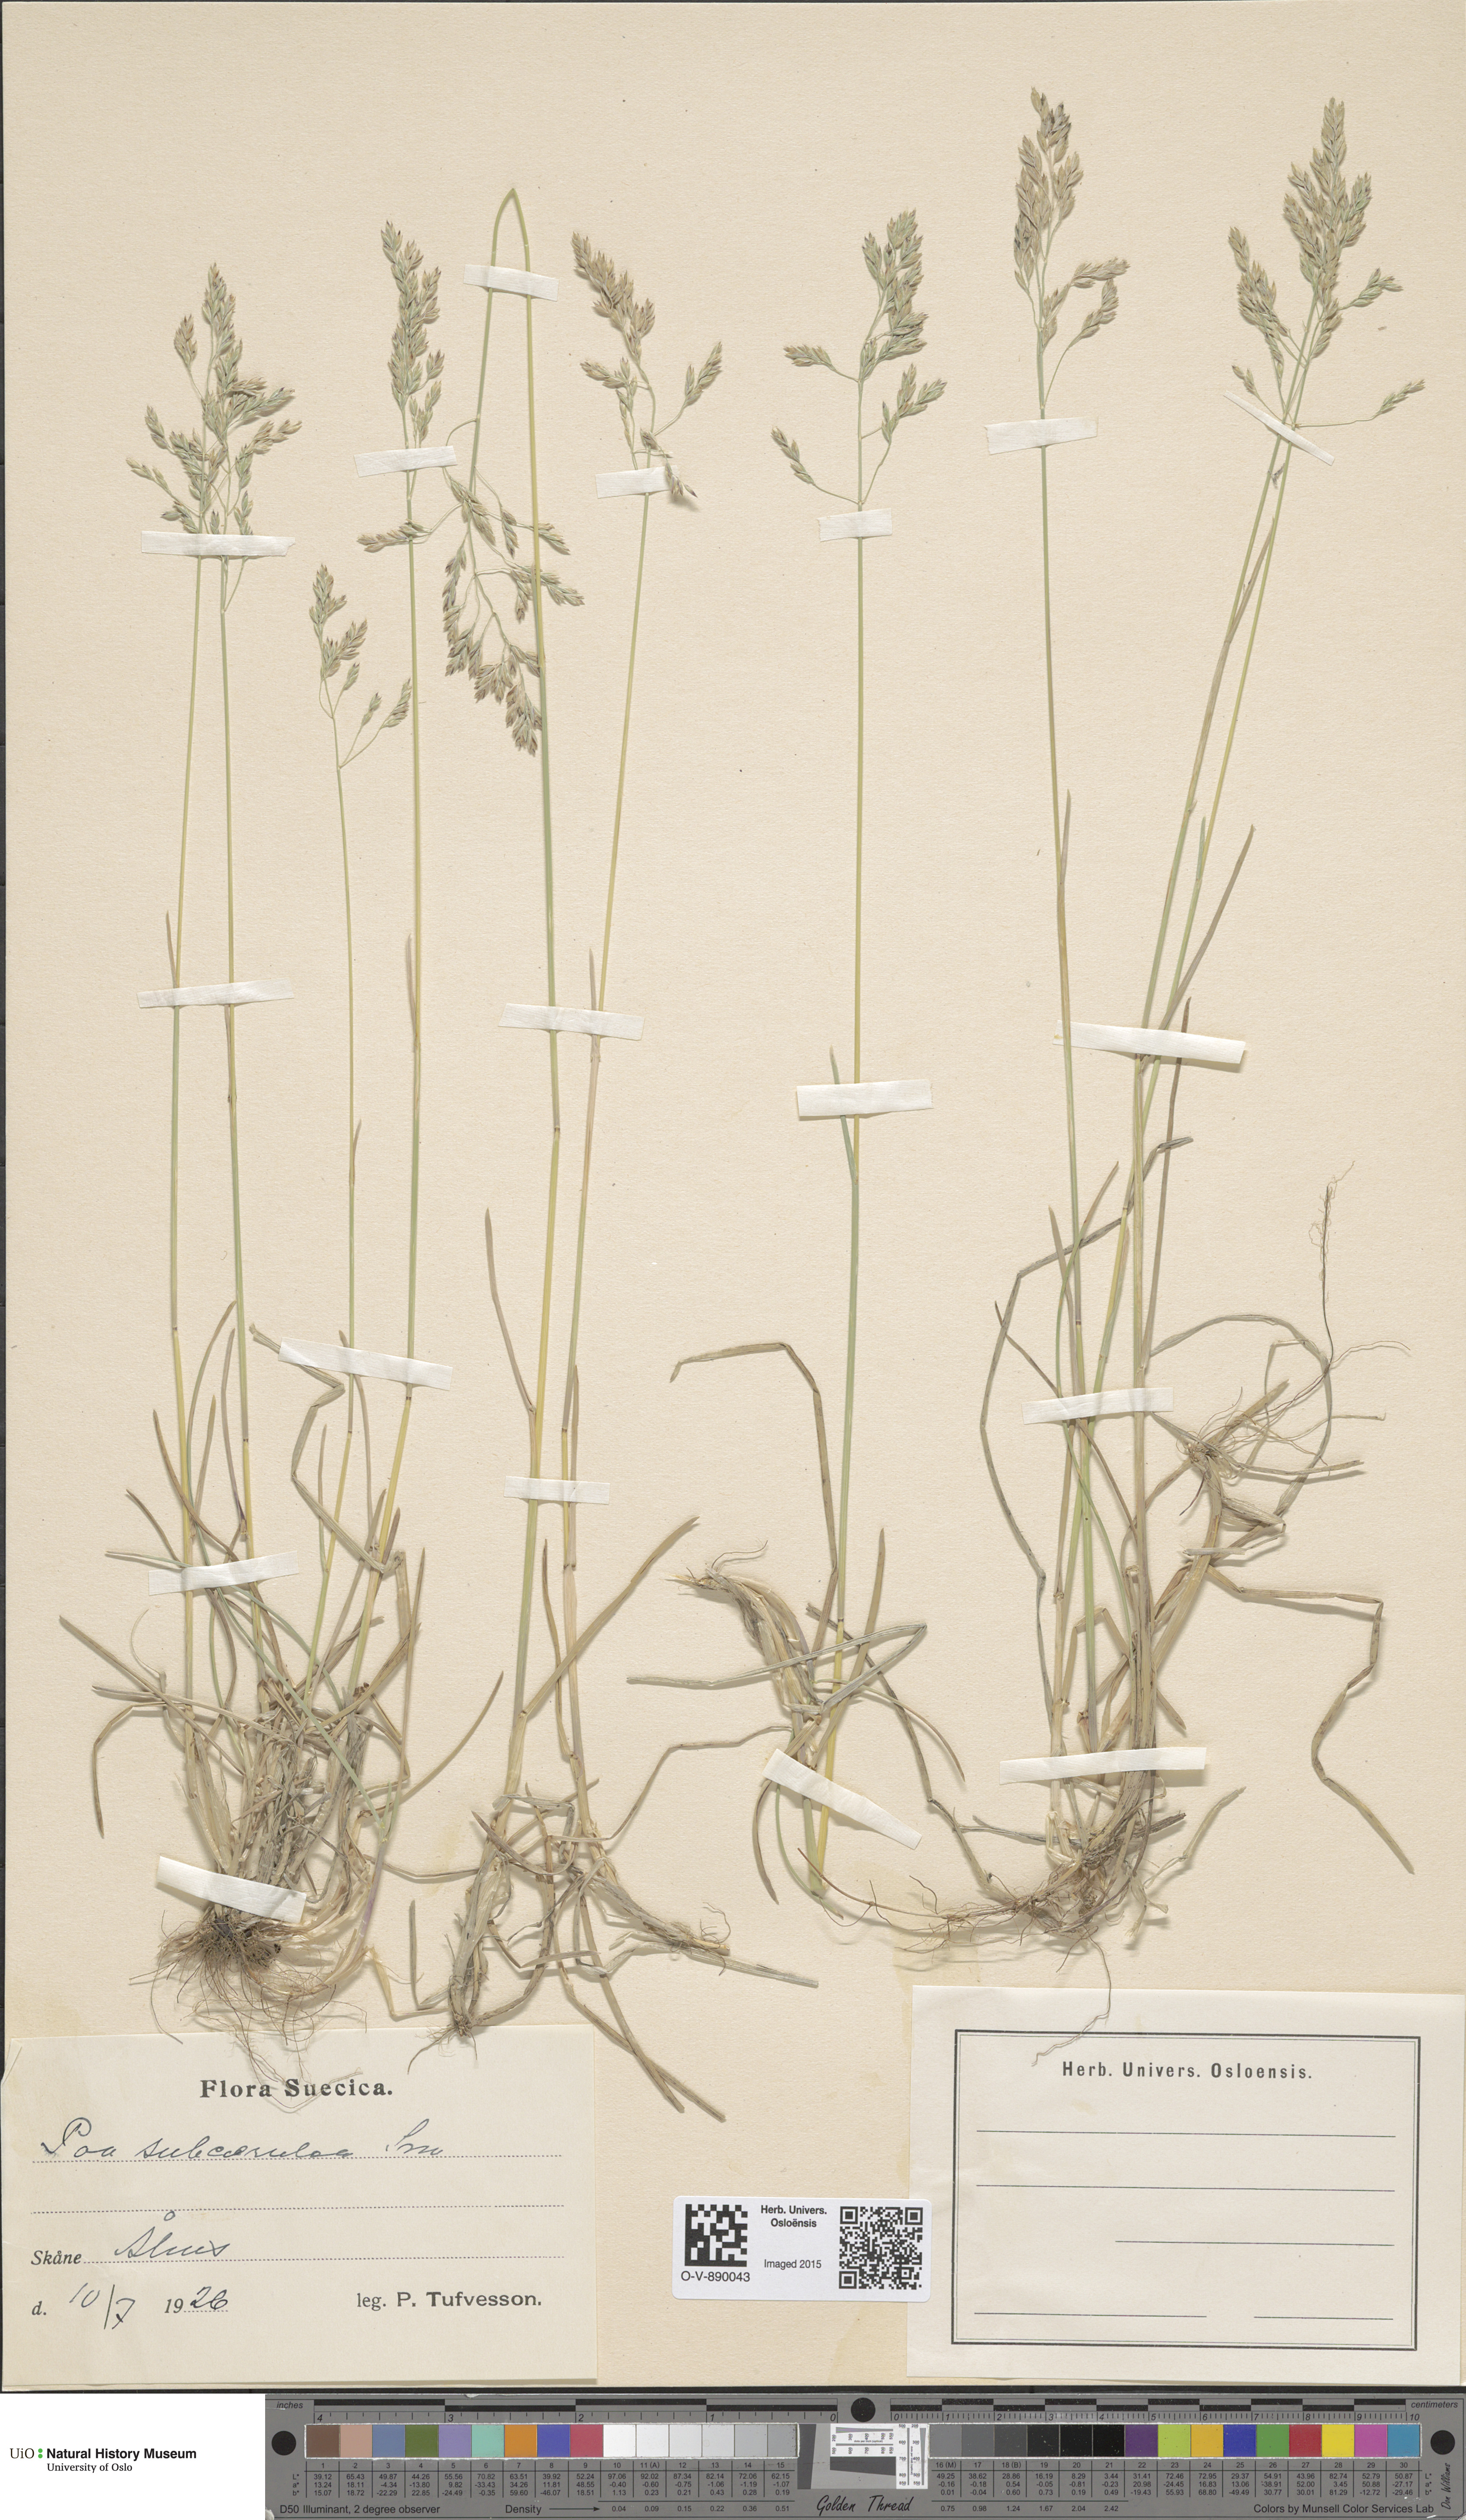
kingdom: Plantae
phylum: Tracheophyta
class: Liliopsida
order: Poales
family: Poaceae
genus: Poa
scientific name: Poa humilis
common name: Spreading meadow-grass
